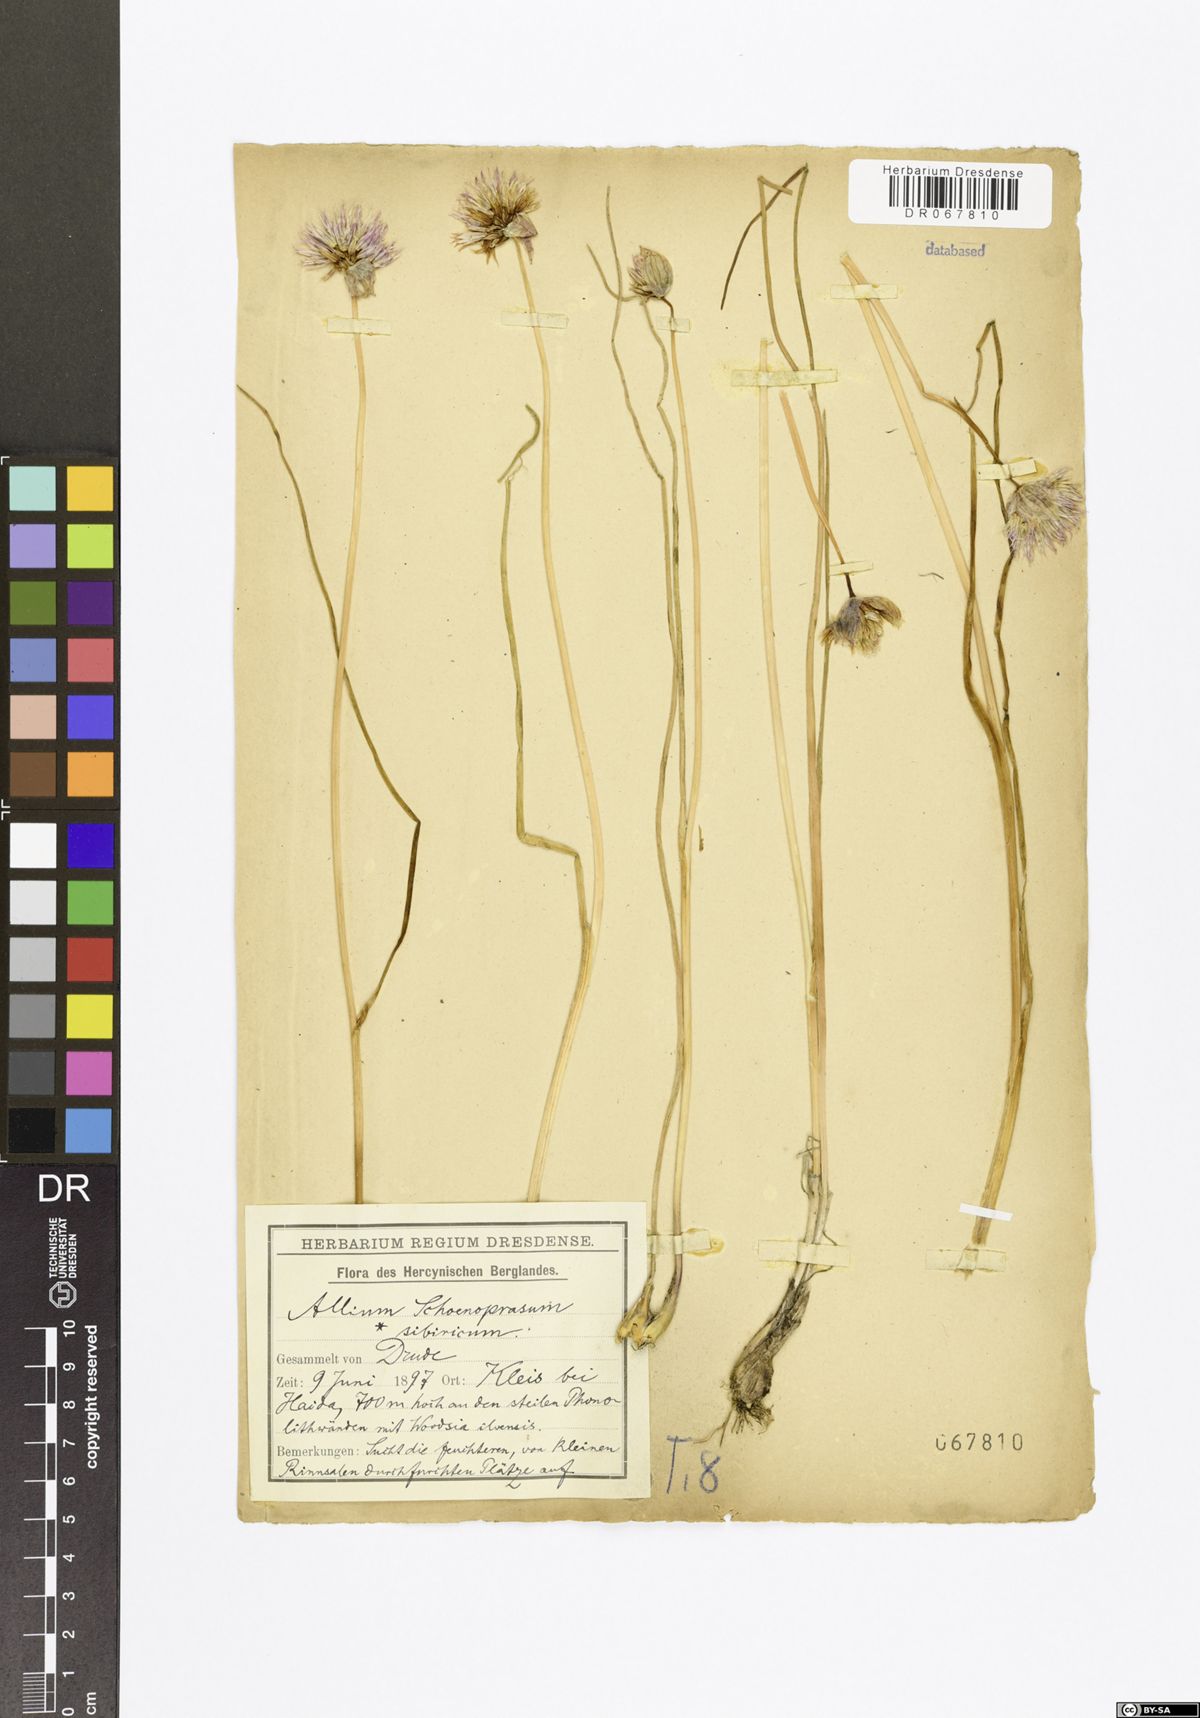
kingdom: Plantae
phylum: Tracheophyta
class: Liliopsida
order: Asparagales
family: Amaryllidaceae
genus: Allium
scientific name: Allium schoenoprasum
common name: Chives
